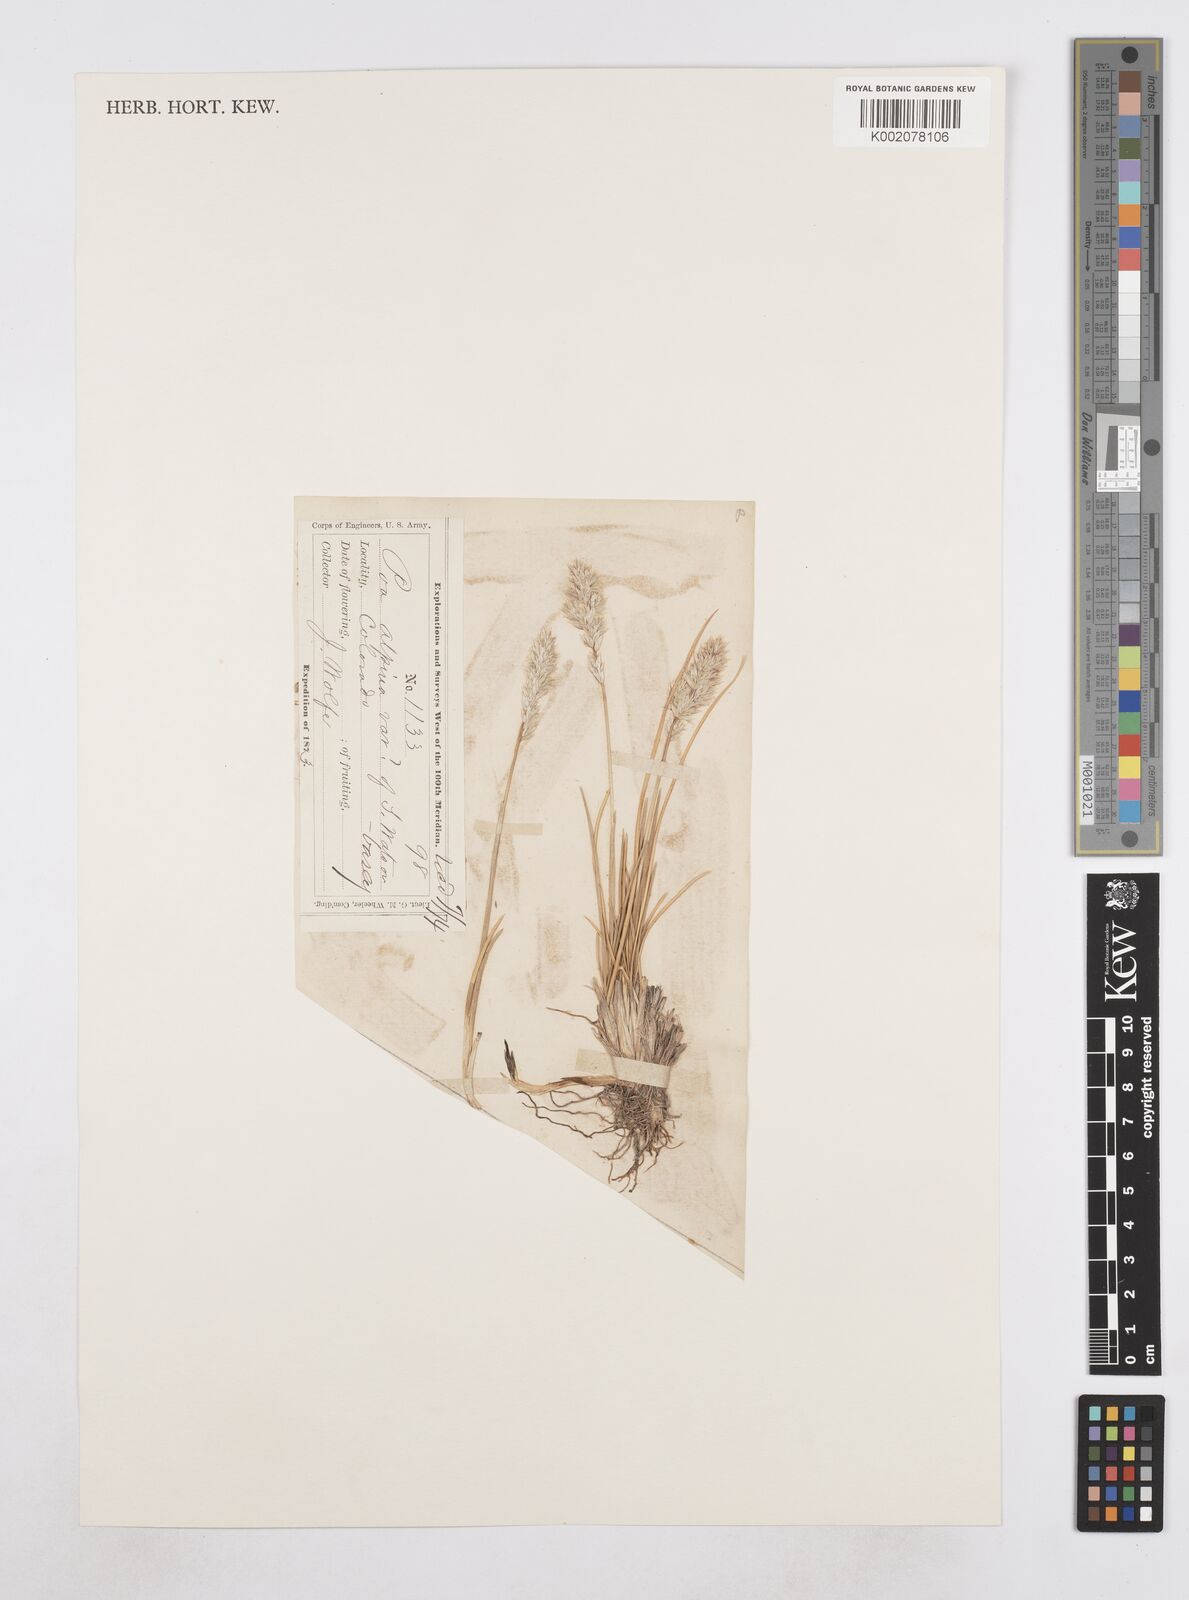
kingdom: Plantae
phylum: Tracheophyta
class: Liliopsida
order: Poales
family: Poaceae
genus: Poa
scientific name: Poa
